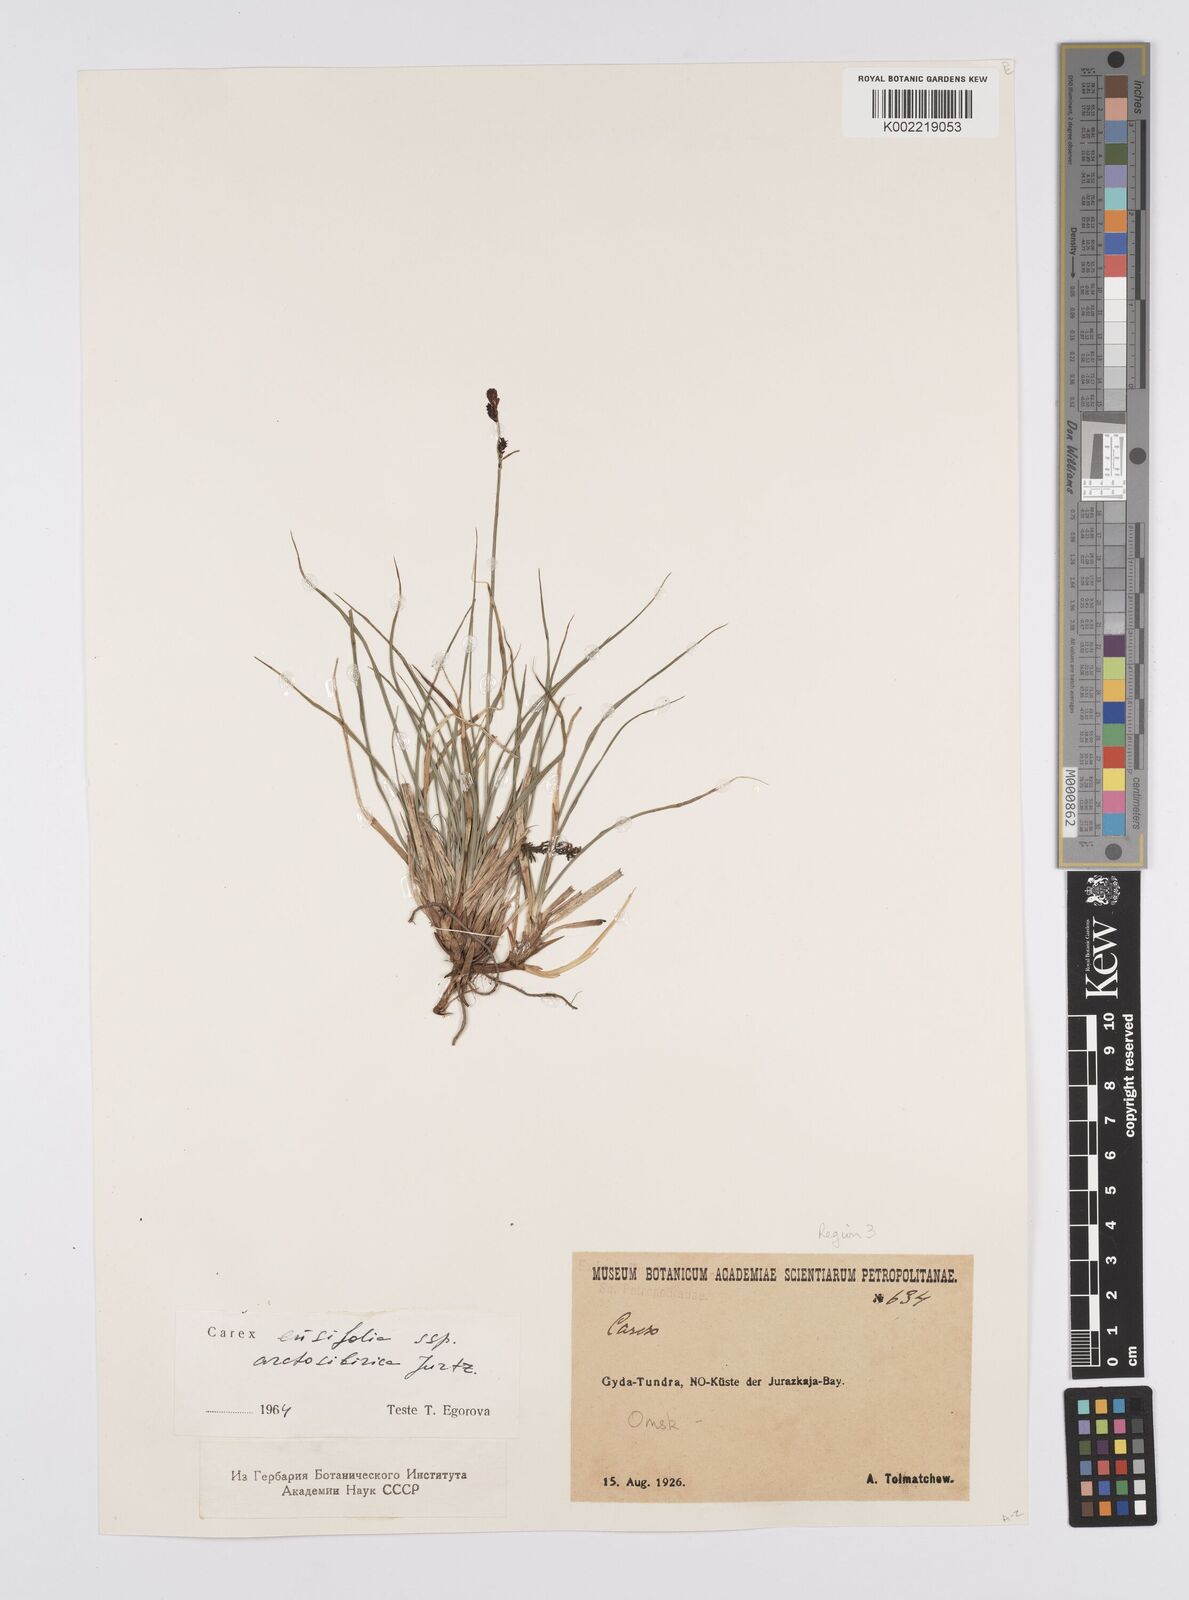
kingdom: Plantae
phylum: Tracheophyta
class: Liliopsida
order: Poales
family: Cyperaceae
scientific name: Cyperaceae
